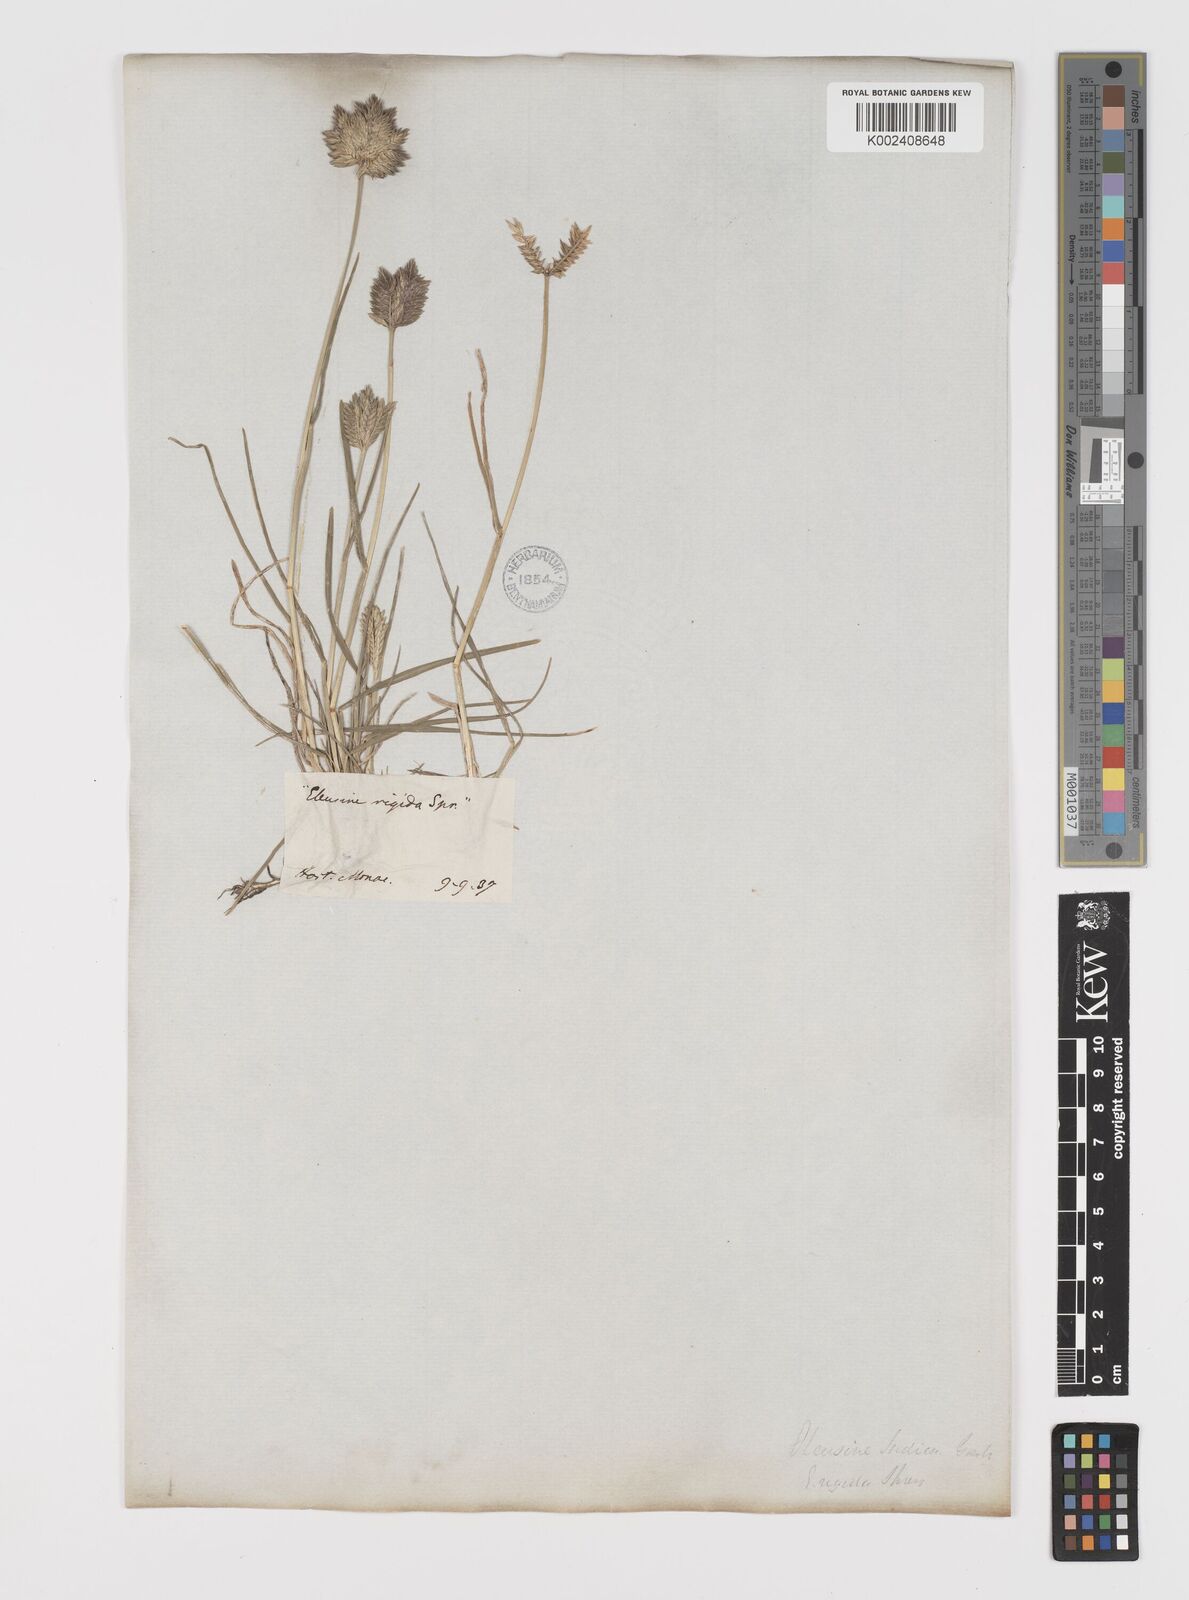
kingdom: Plantae
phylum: Tracheophyta
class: Liliopsida
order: Poales
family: Poaceae
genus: Eleusine
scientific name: Eleusine tristachya
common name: American yard-grass
